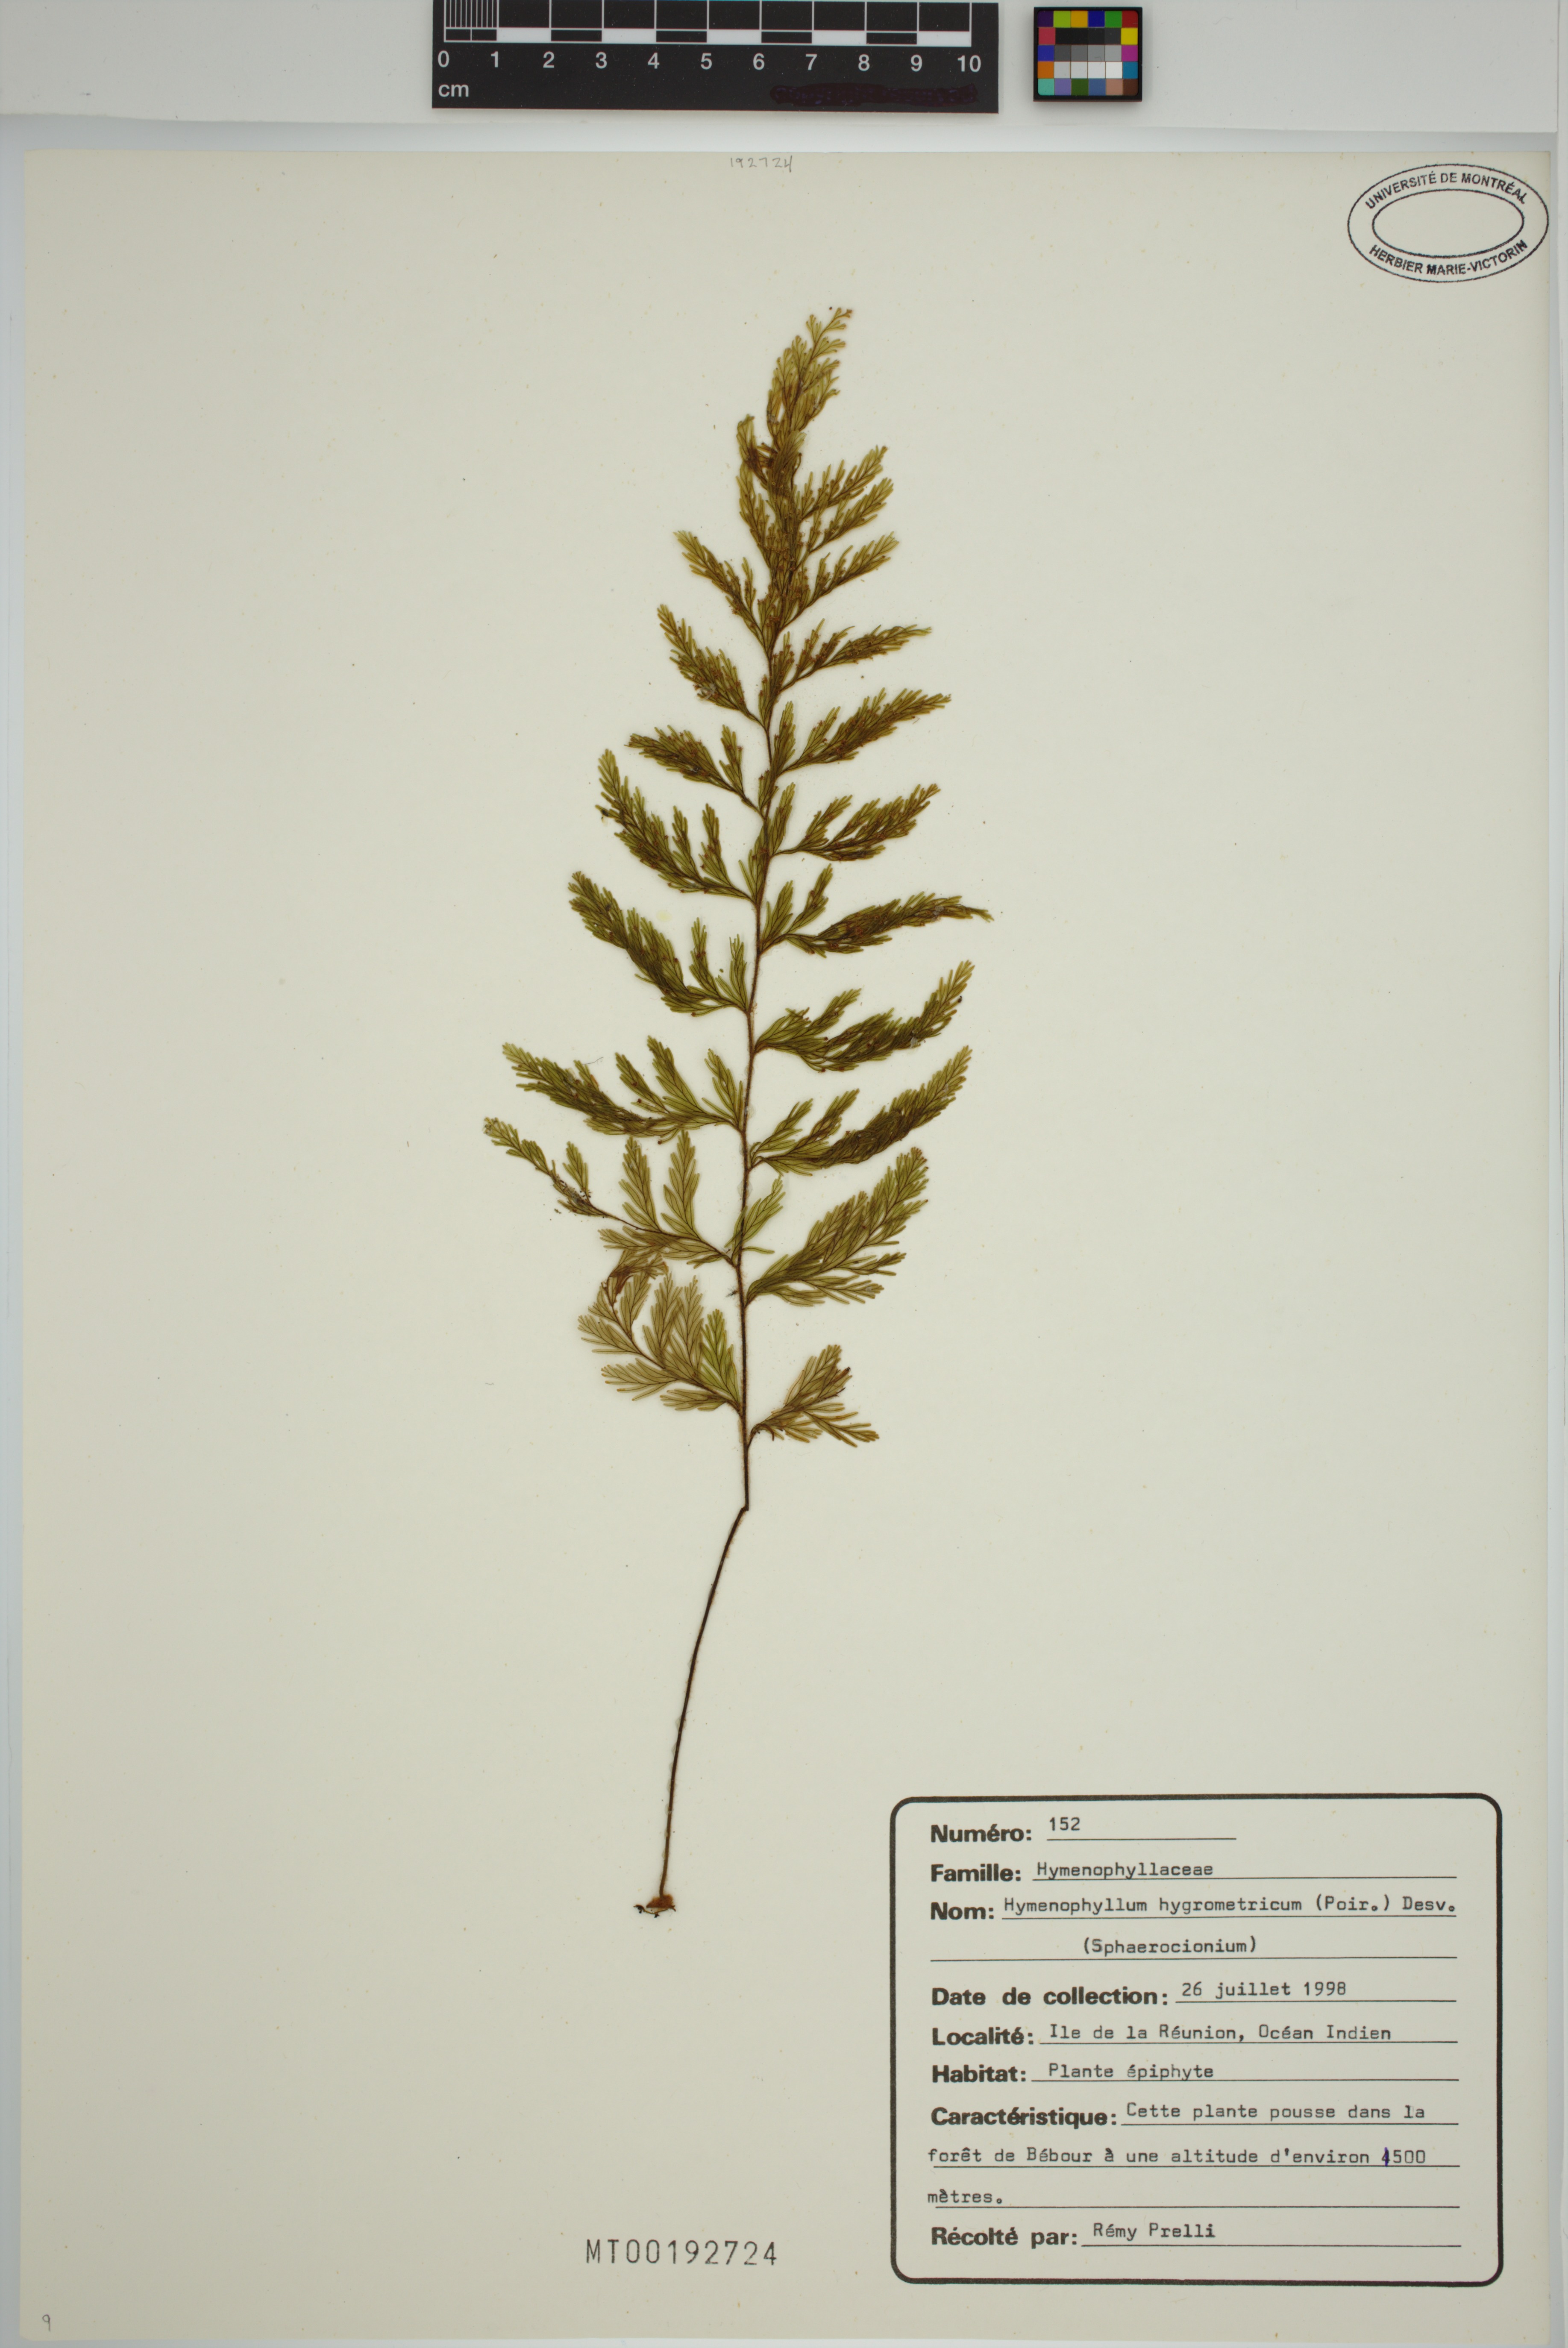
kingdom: Plantae
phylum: Tracheophyta
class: Polypodiopsida
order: Hymenophyllales
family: Hymenophyllaceae
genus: Hymenophyllum
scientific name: Hymenophyllum hygrometricum
